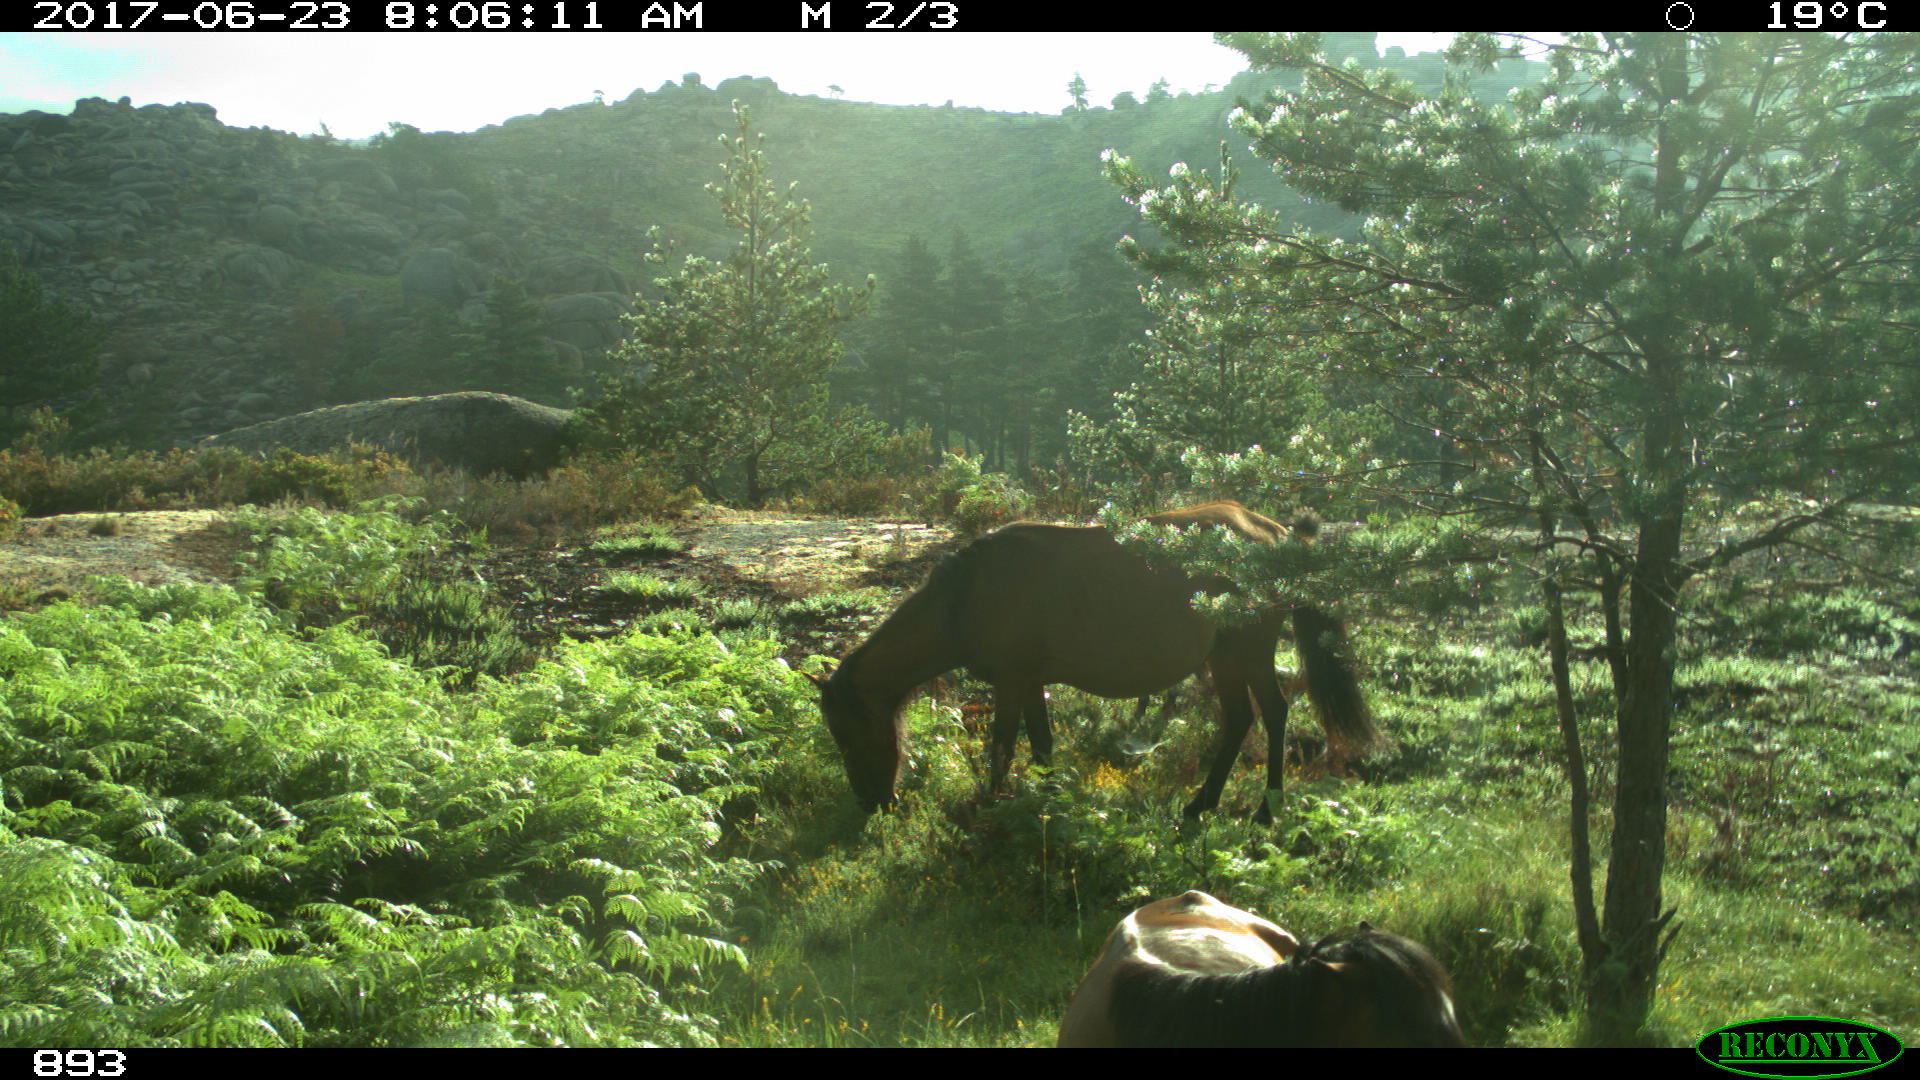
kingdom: Animalia
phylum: Chordata
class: Mammalia
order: Perissodactyla
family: Equidae
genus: Equus
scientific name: Equus caballus
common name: Horse
